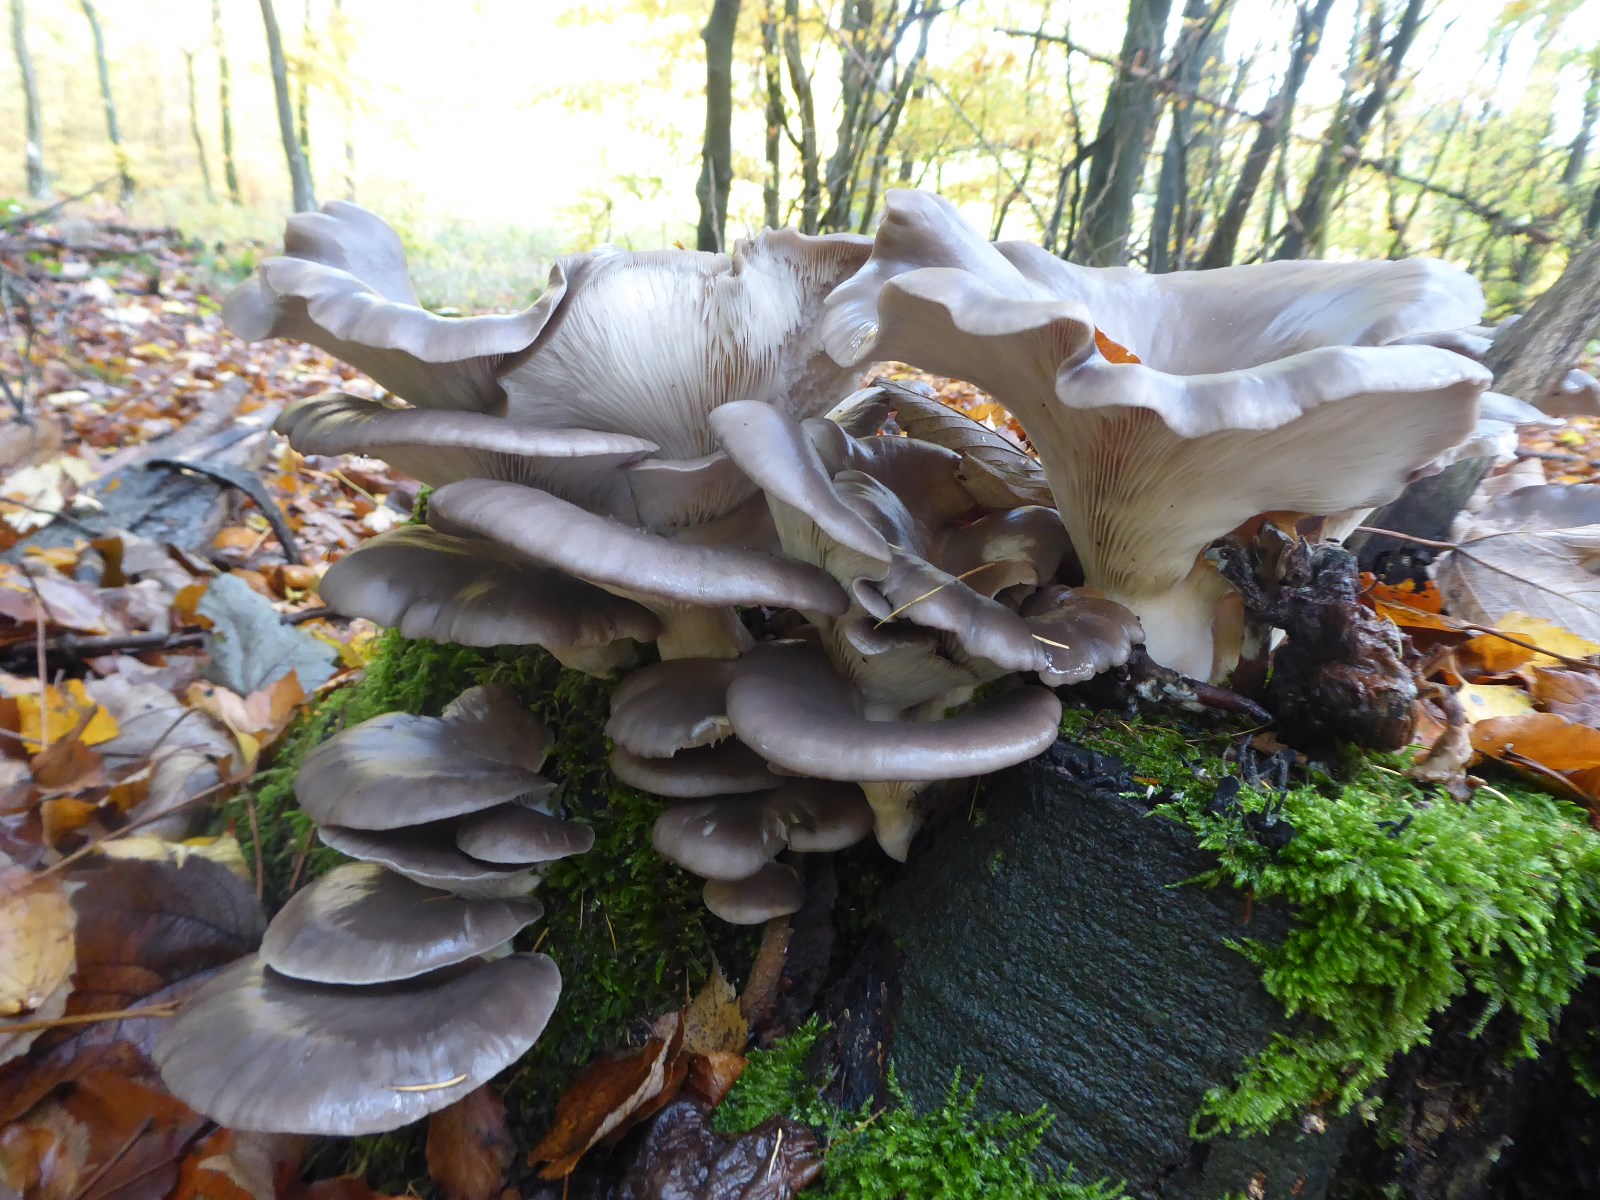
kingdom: Fungi
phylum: Basidiomycota
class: Agaricomycetes
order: Agaricales
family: Pleurotaceae
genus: Pleurotus
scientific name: Pleurotus ostreatus
